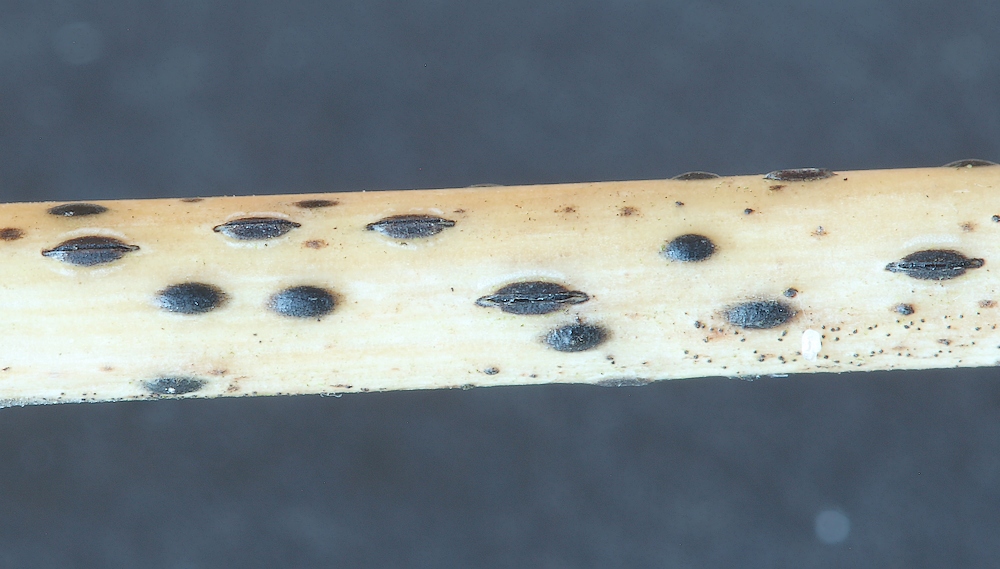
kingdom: Fungi
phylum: Ascomycota
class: Leotiomycetes
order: Rhytismatales
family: Rhytismataceae
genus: Lophodermium
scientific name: Lophodermium
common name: fureplet
